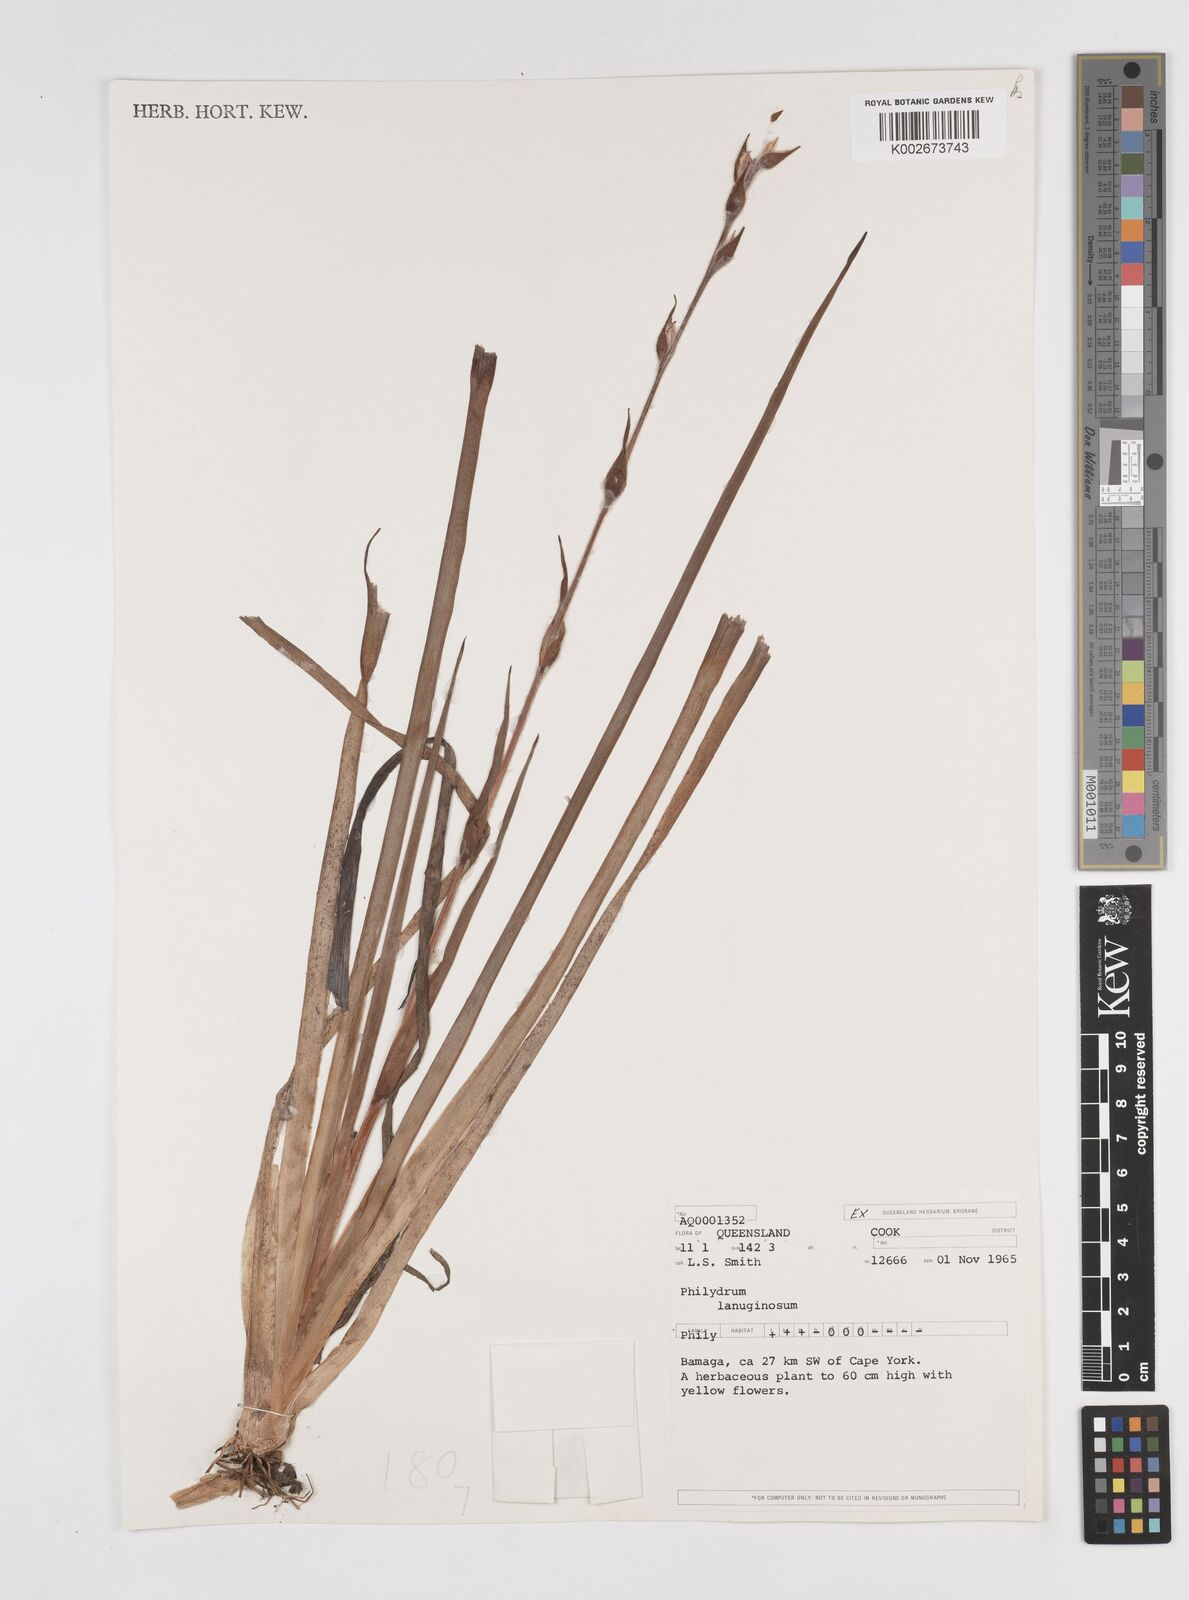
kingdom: Plantae
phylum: Tracheophyta
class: Liliopsida
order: Commelinales
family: Philydraceae
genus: Philydrum
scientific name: Philydrum lanuginosum
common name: Woolly frog's mouth
